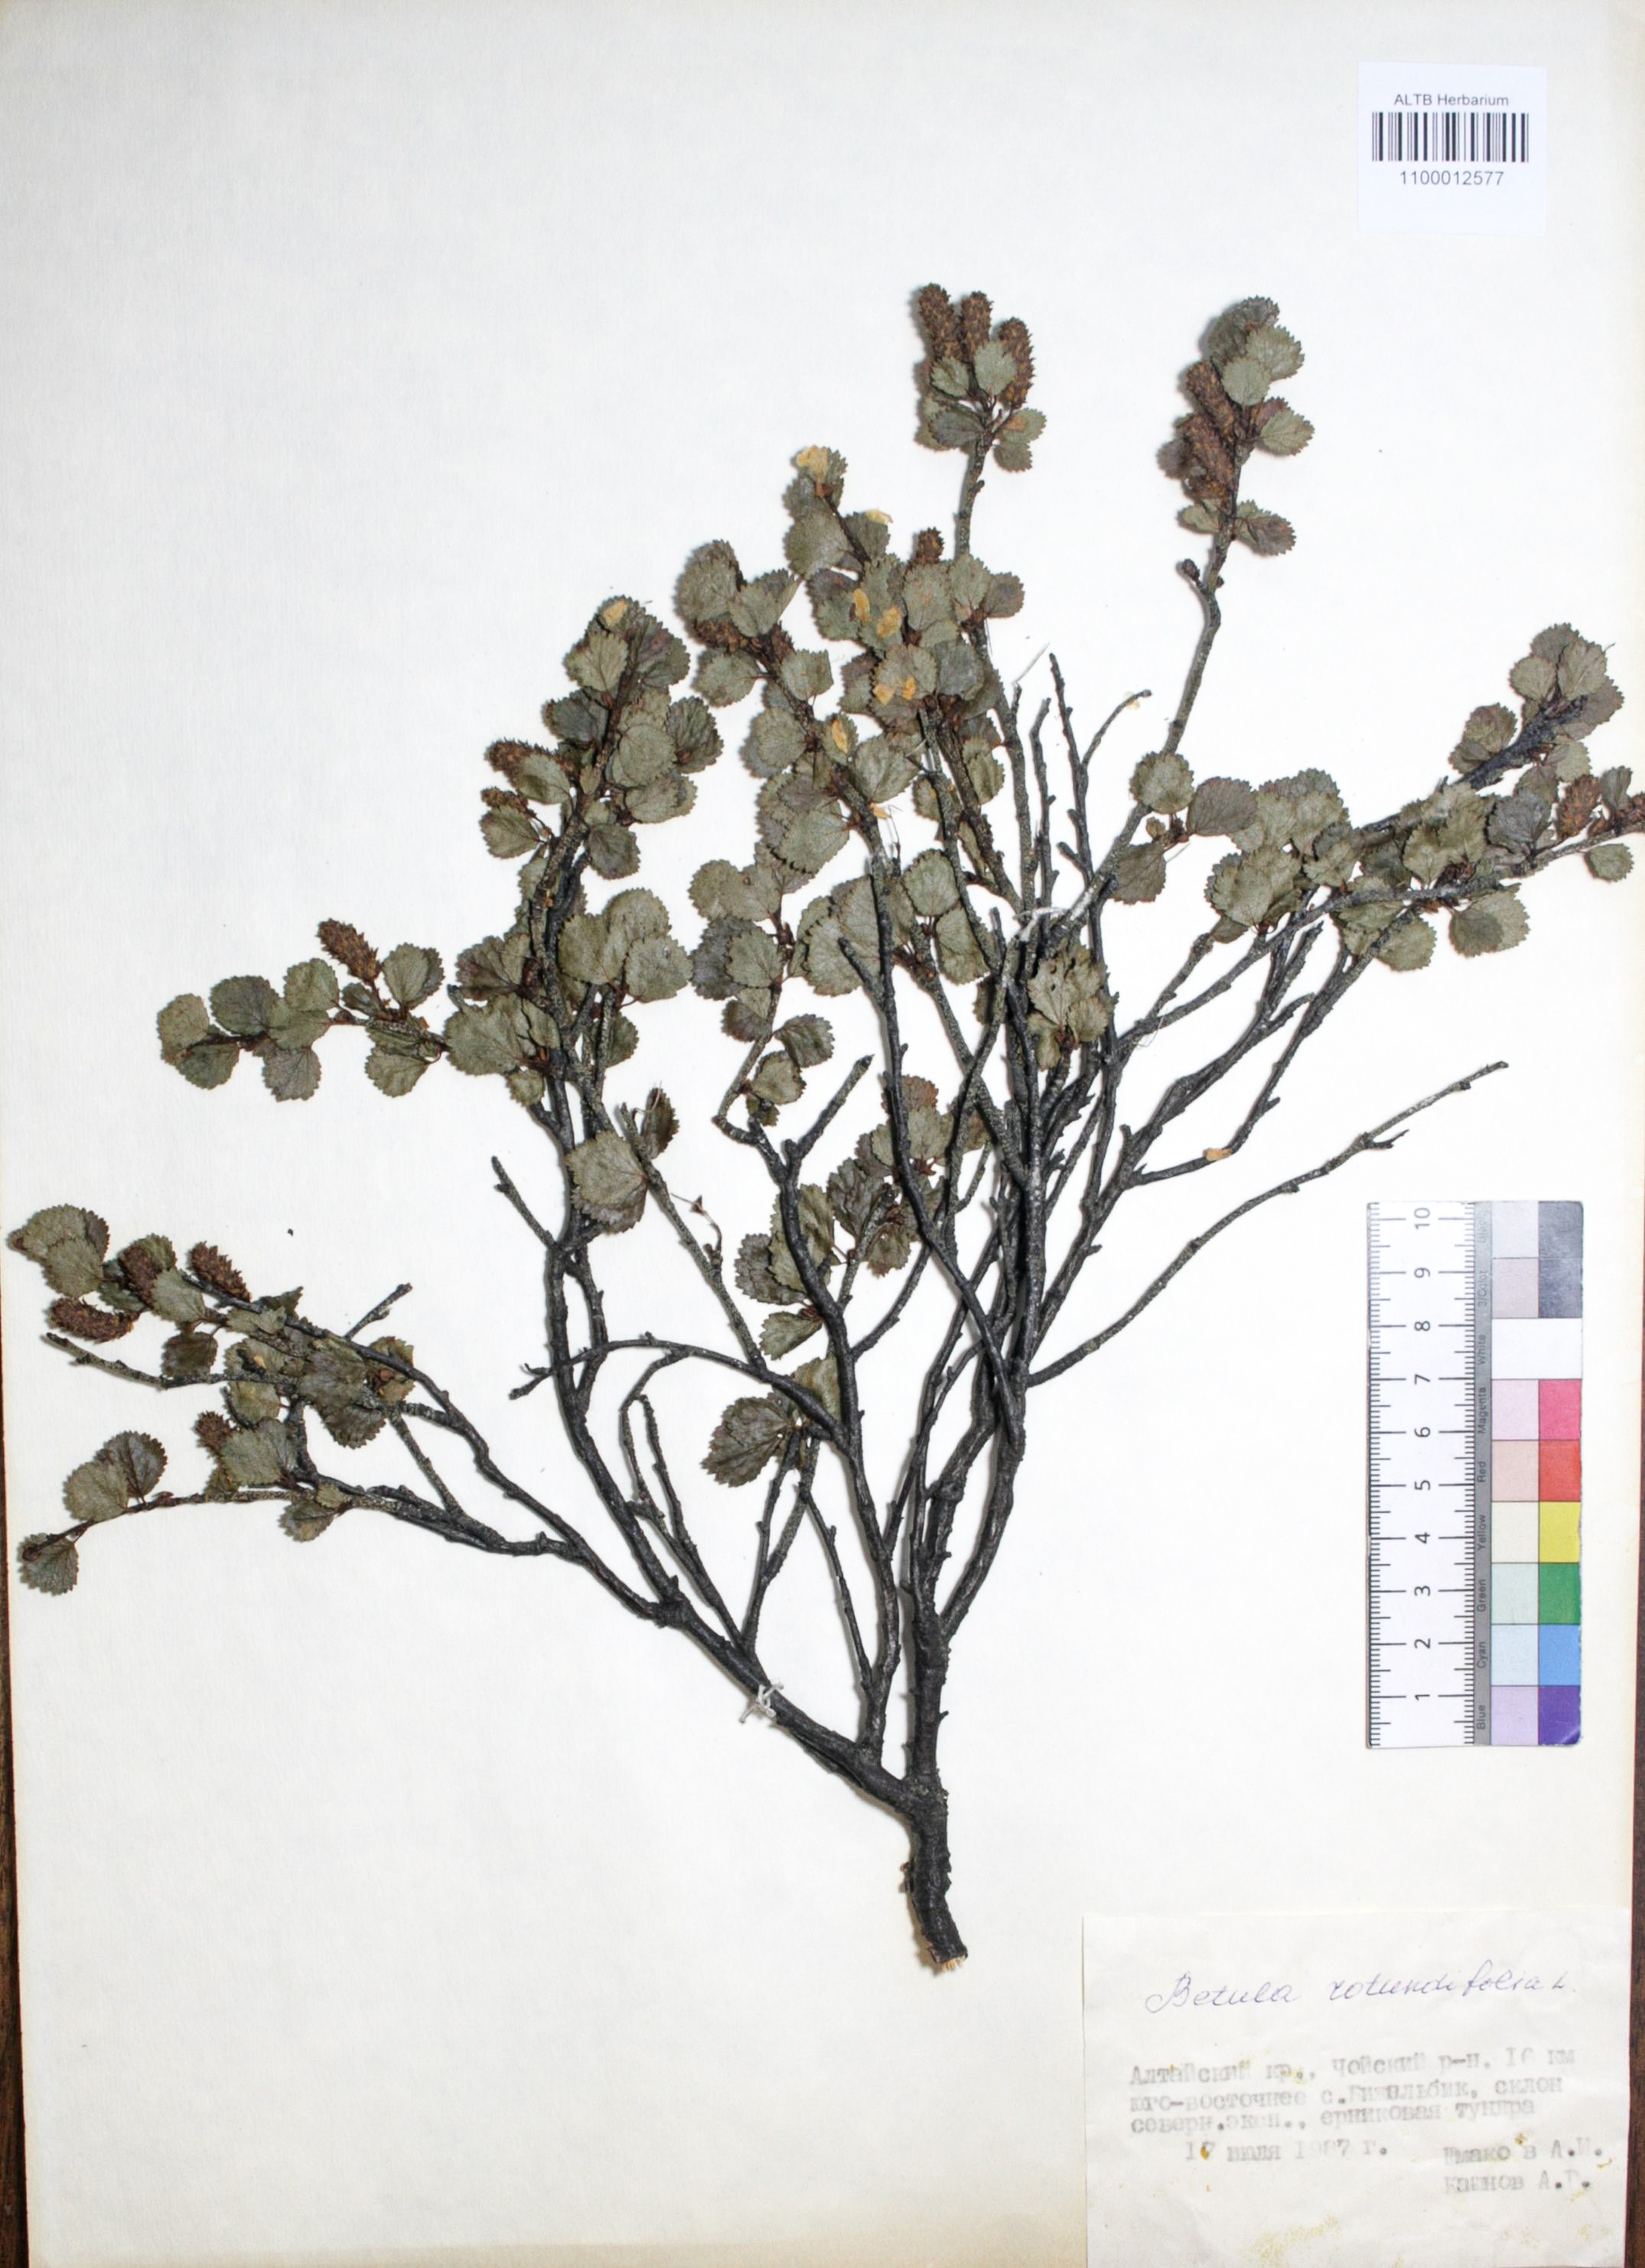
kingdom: Plantae
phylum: Tracheophyta
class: Magnoliopsida
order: Fagales
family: Betulaceae
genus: Betula
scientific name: Betula glandulosa
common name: Dwarf birch
